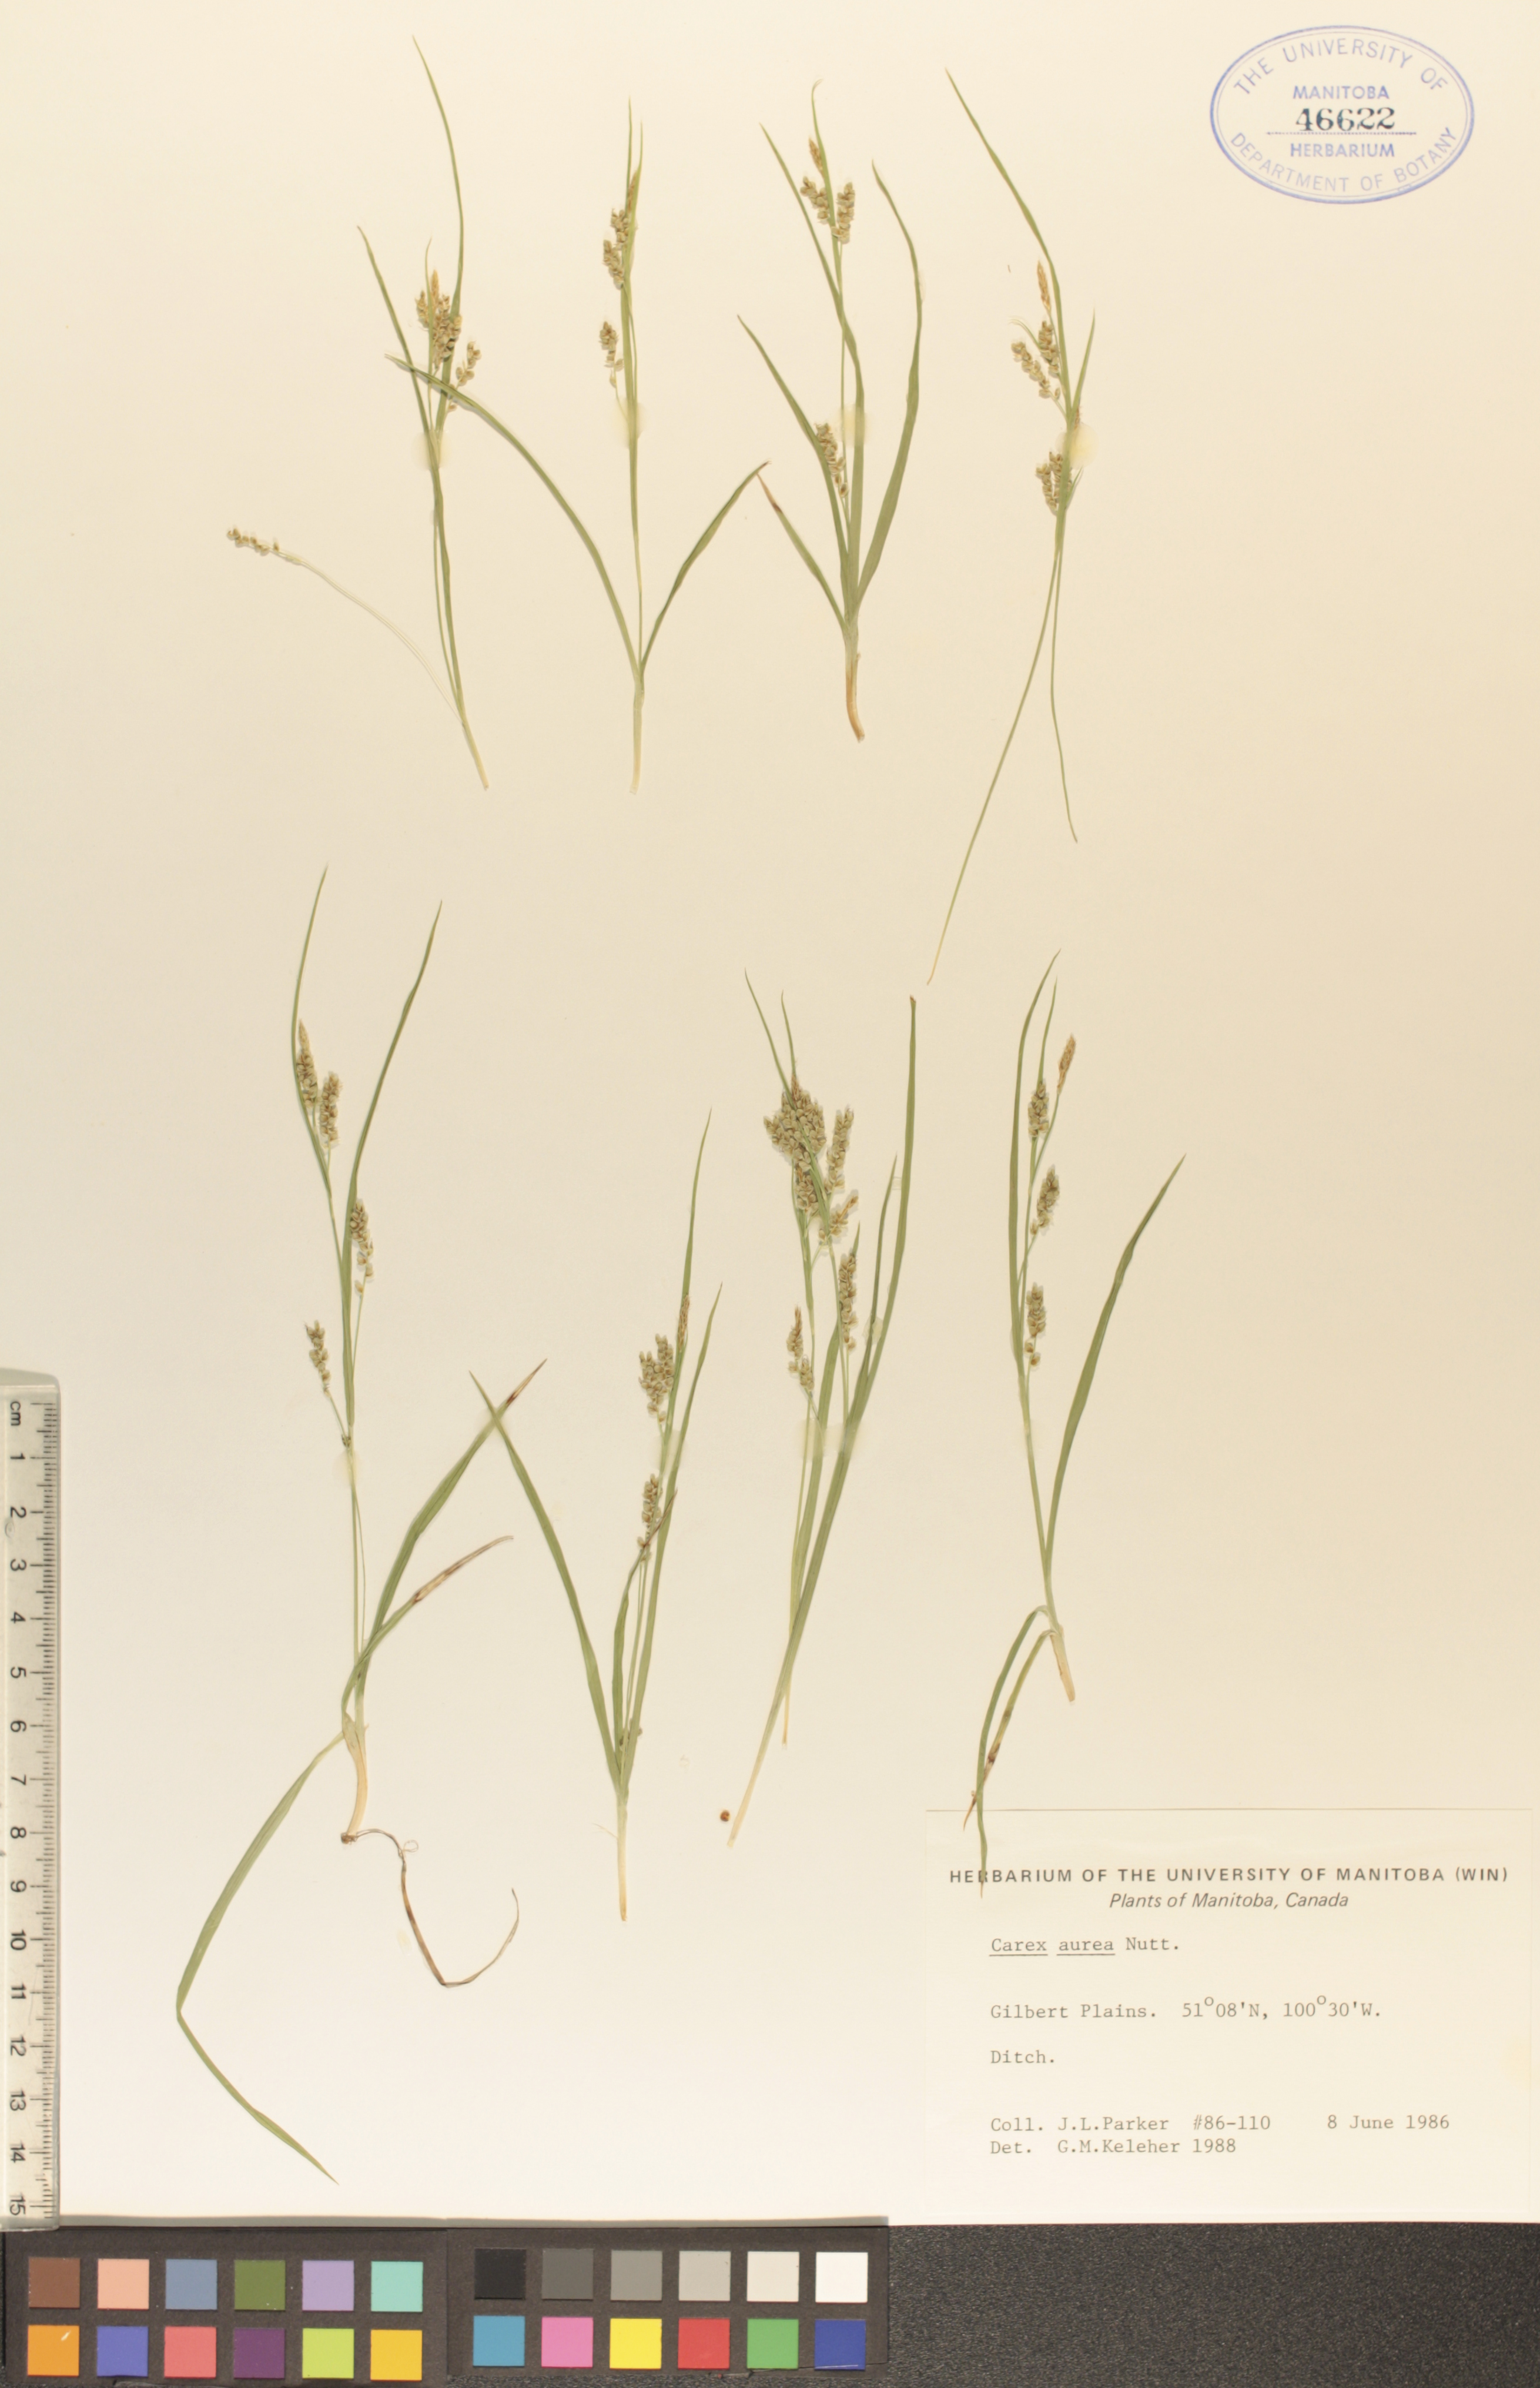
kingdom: Plantae
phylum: Tracheophyta
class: Liliopsida
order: Poales
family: Cyperaceae
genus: Carex
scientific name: Carex aurea
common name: Golden sedge
